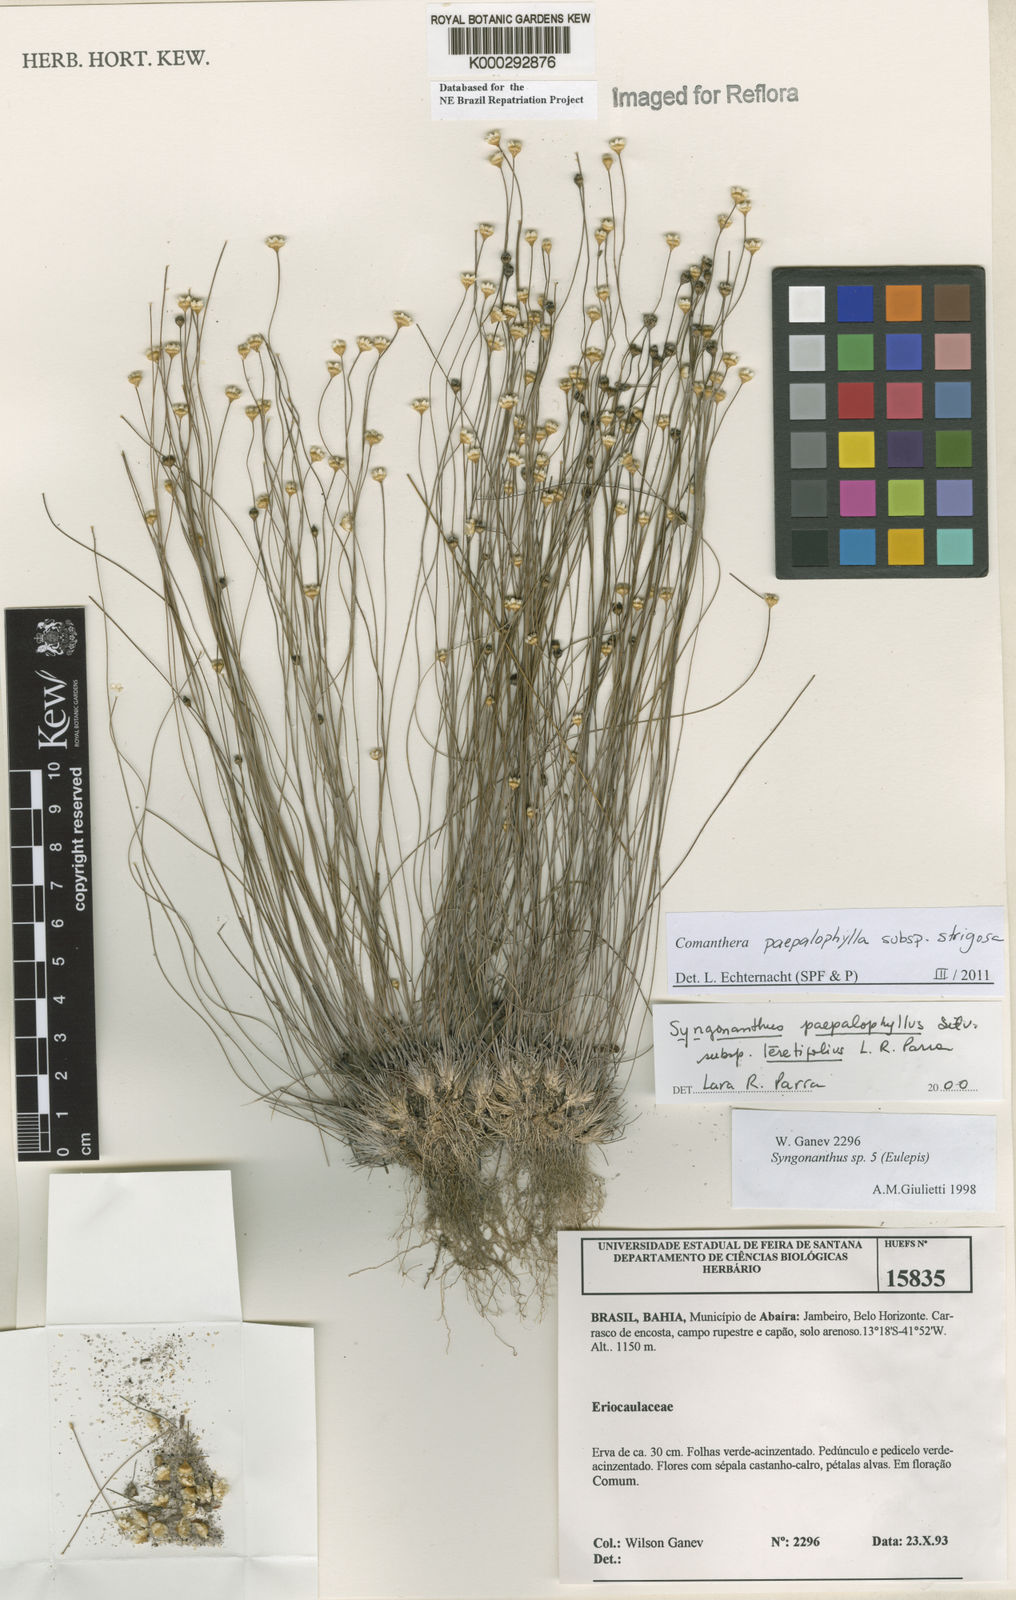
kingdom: Plantae
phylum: Tracheophyta
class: Liliopsida
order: Poales
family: Eriocaulaceae
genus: Comanthera
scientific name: Comanthera paepalophylla
